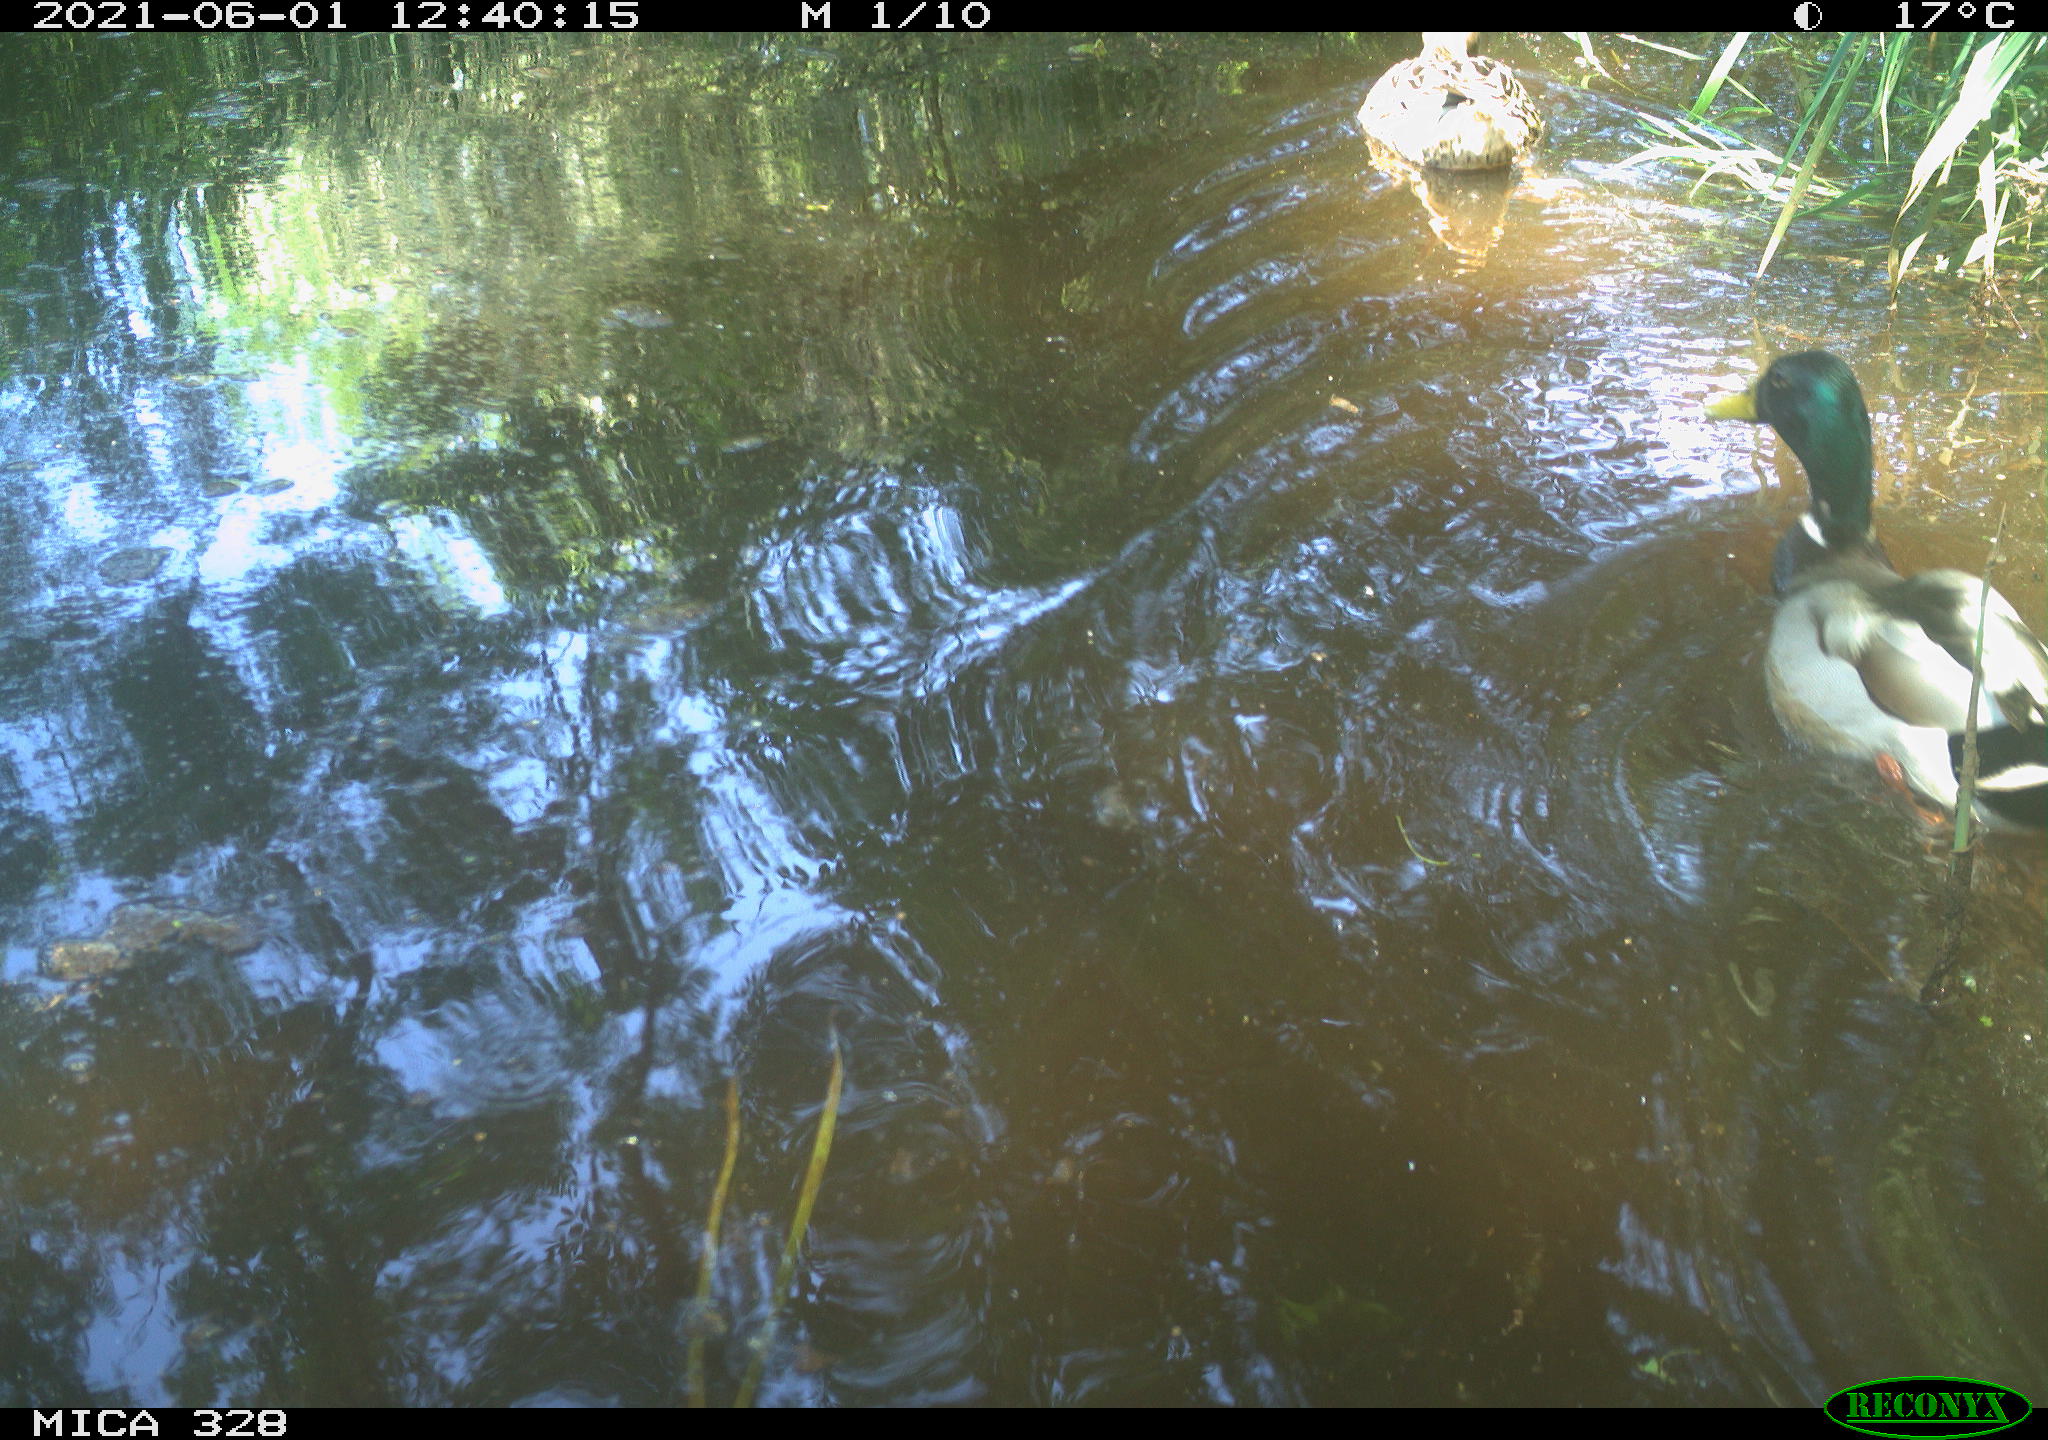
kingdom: Animalia
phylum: Chordata
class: Aves
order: Anseriformes
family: Anatidae
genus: Anas
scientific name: Anas platyrhynchos
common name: Mallard
